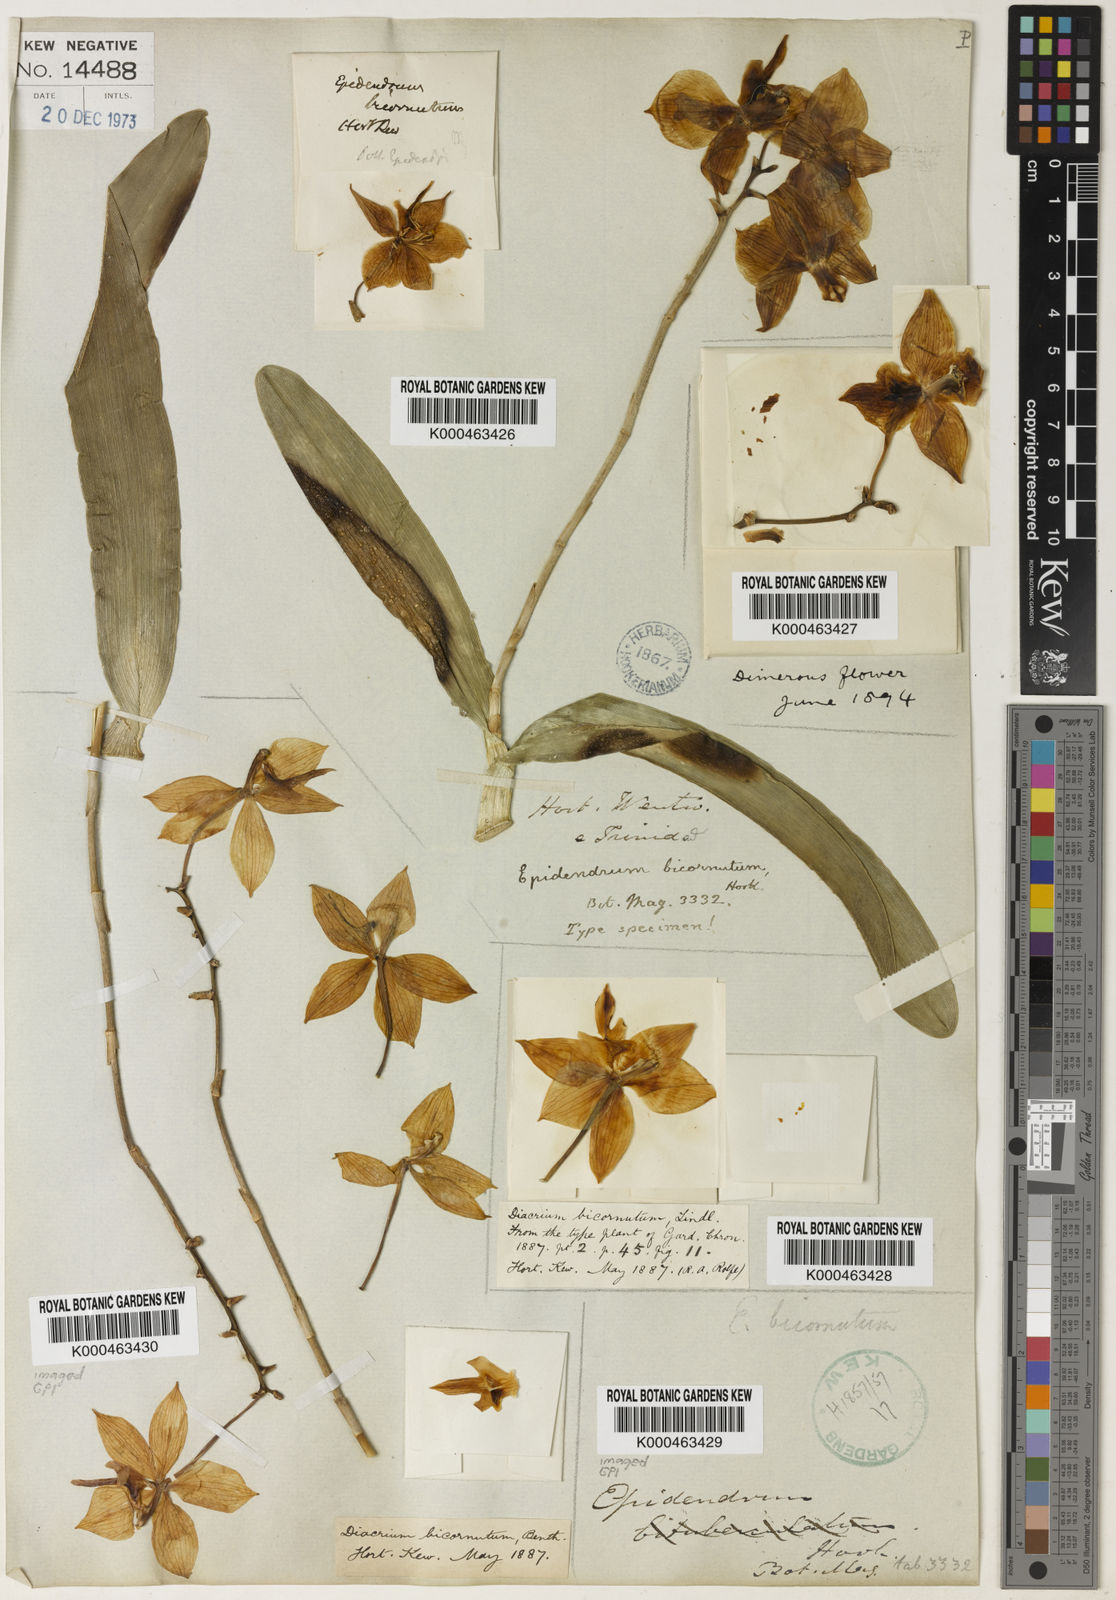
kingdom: Plantae
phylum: Tracheophyta
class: Liliopsida
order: Asparagales
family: Orchidaceae
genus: Caularthron
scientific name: Caularthron bicornutum
